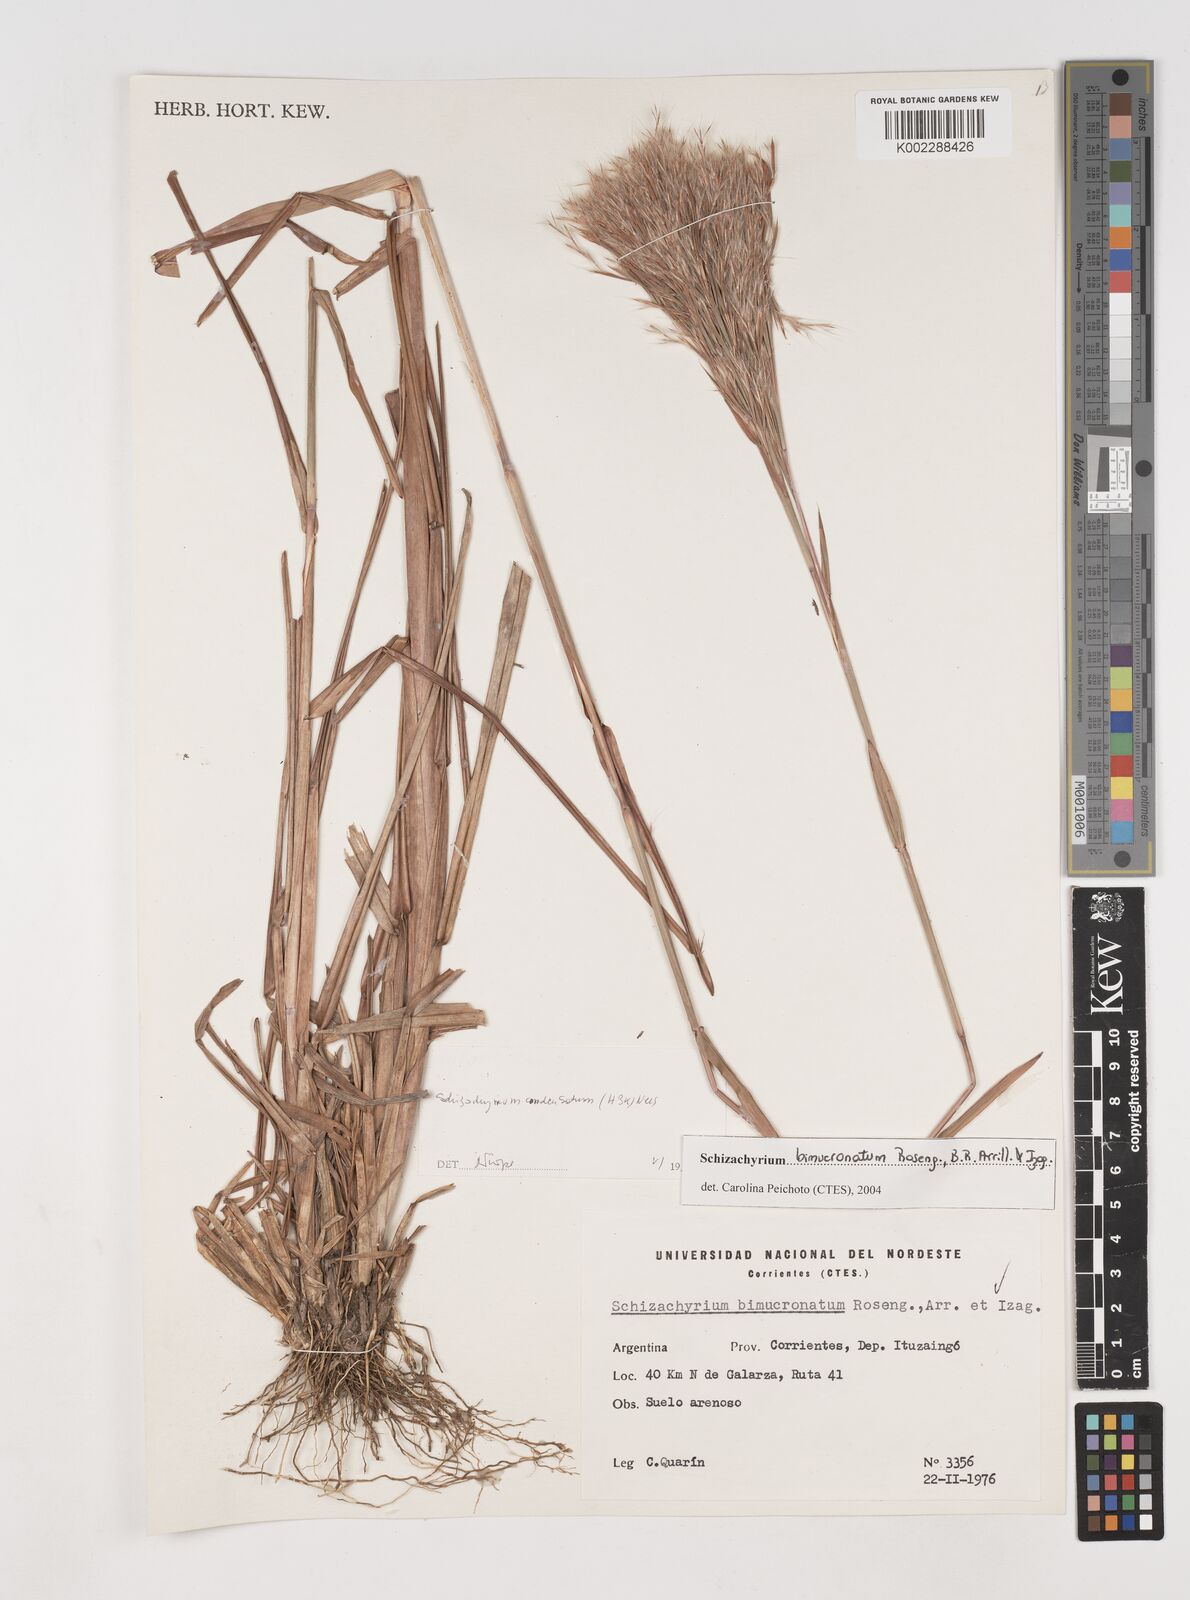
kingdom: Plantae
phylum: Tracheophyta
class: Liliopsida
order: Poales
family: Poaceae
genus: Schizachyrium
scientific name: Schizachyrium condensatum
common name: Bush beardgrass
